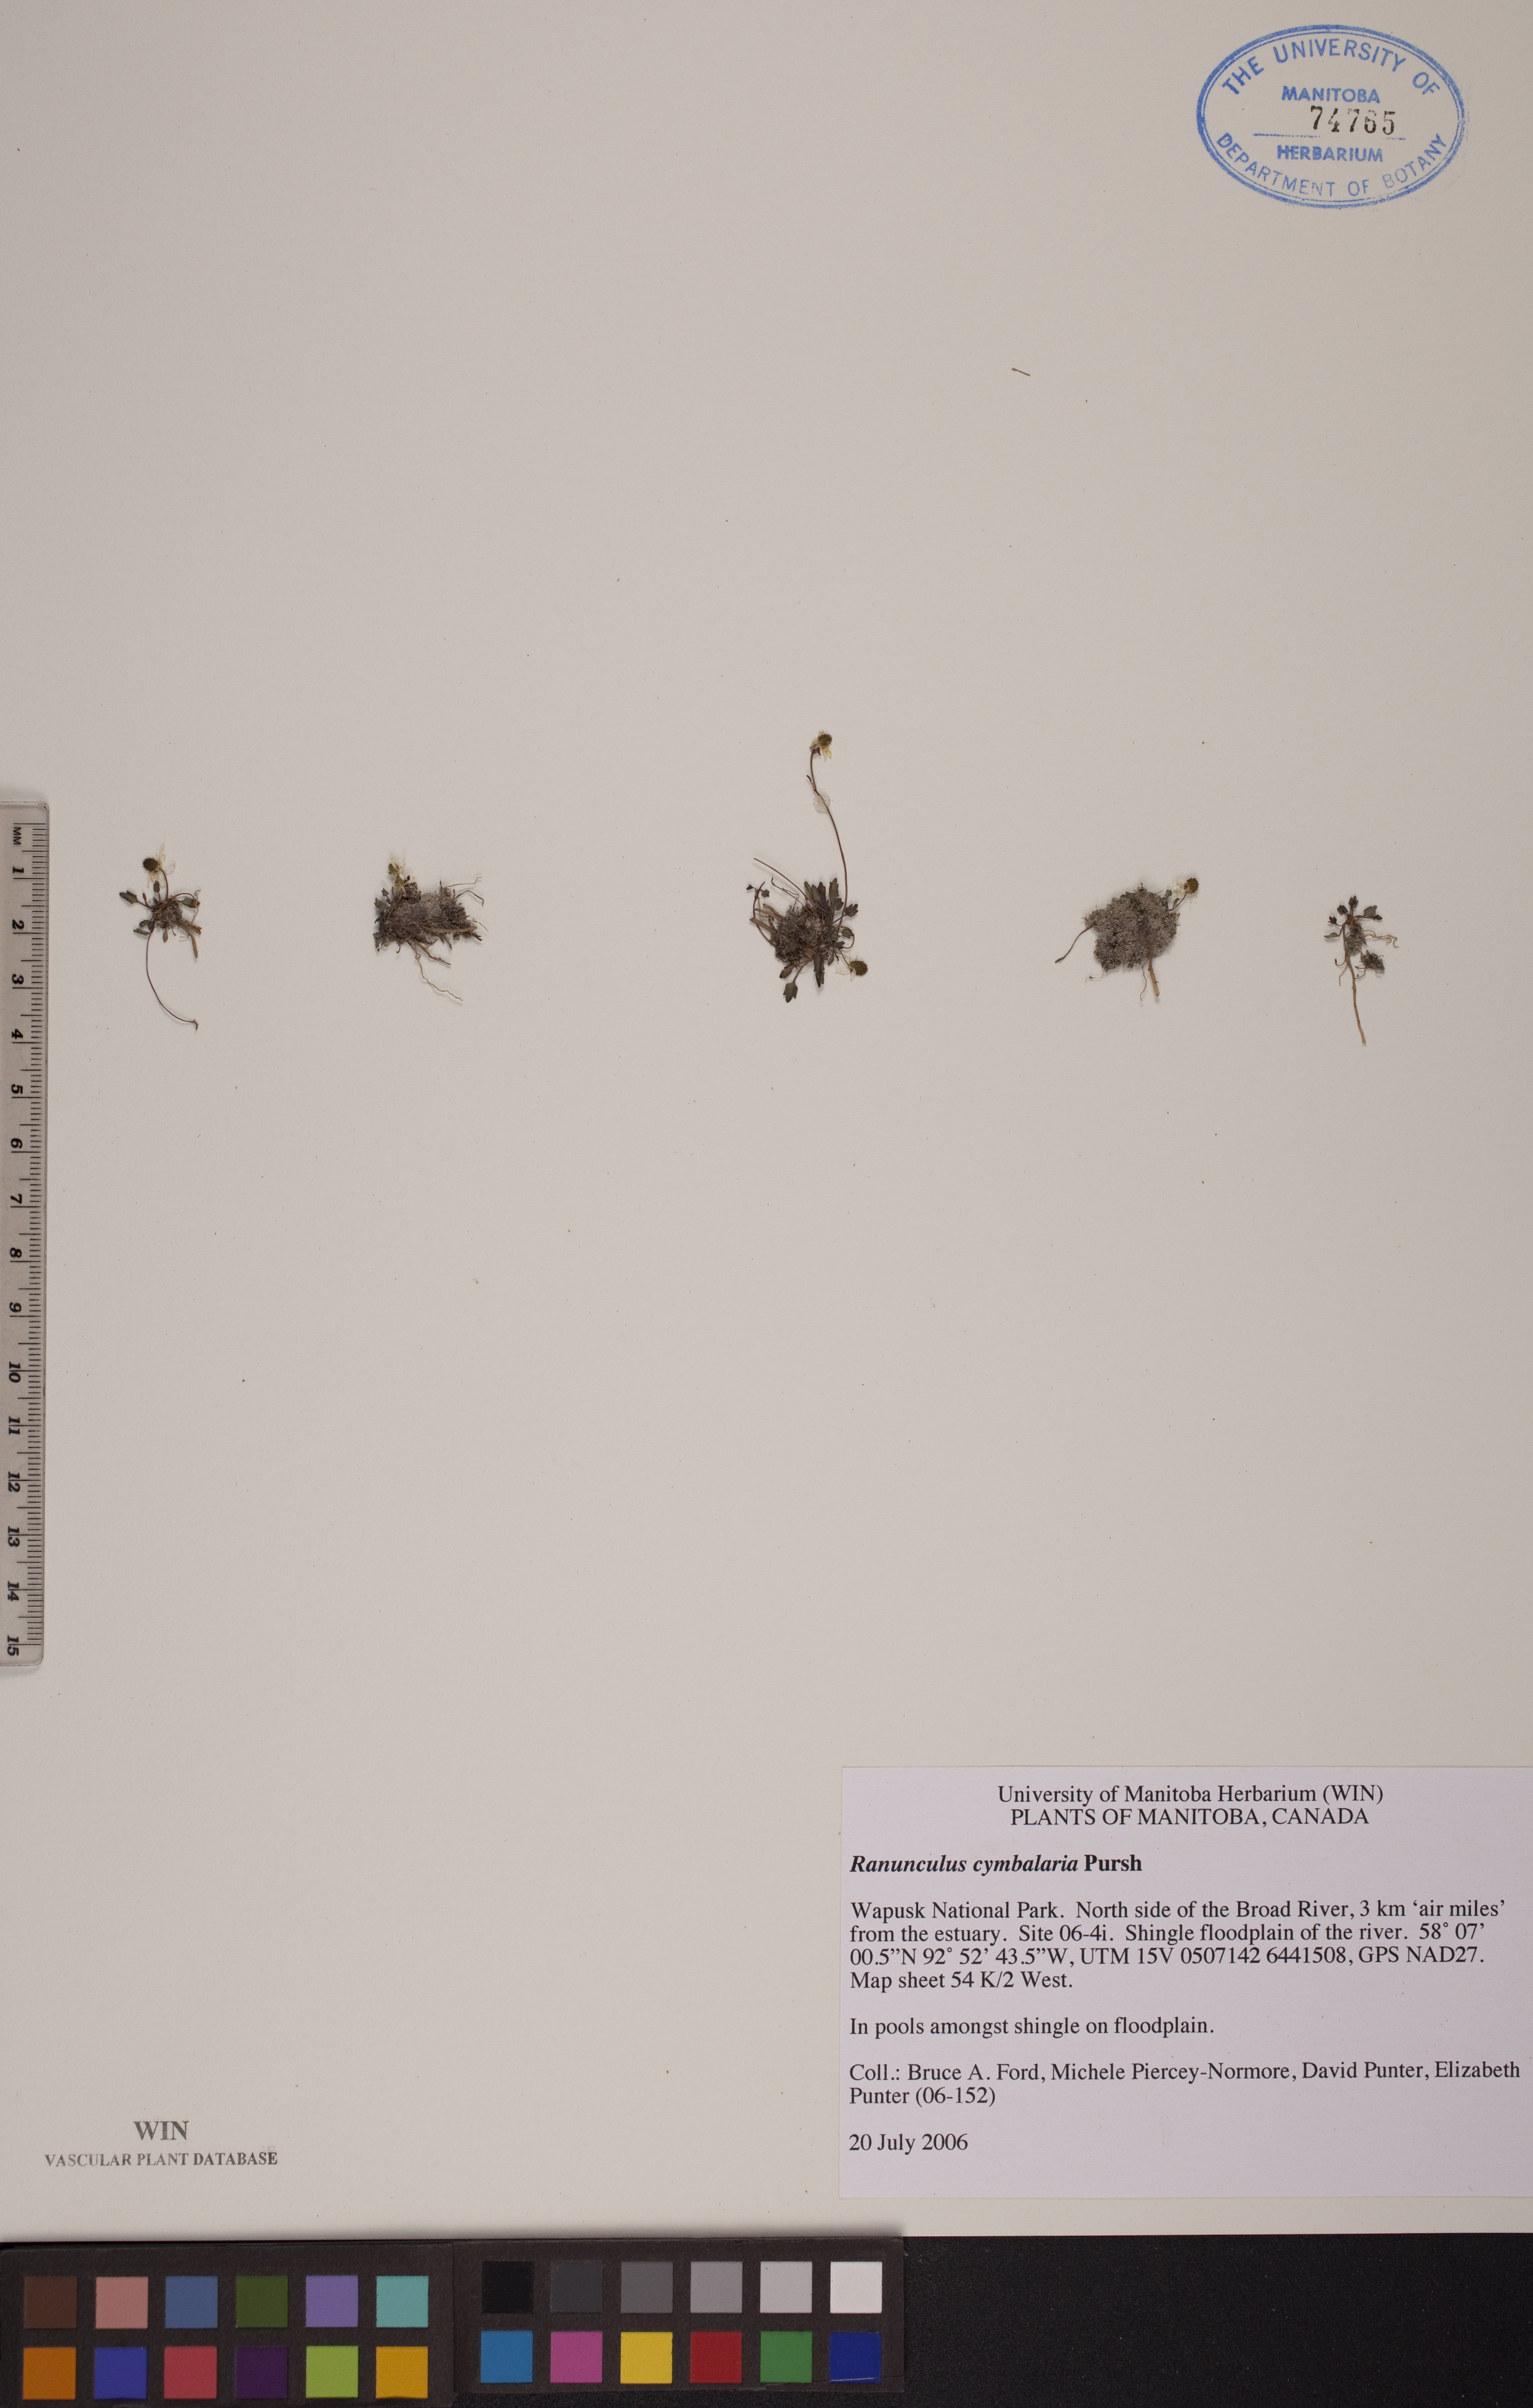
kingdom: Plantae
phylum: Tracheophyta
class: Magnoliopsida
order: Ranunculales
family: Ranunculaceae
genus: Halerpestes
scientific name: Halerpestes cymbalaria
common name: Seaside crowfoot
